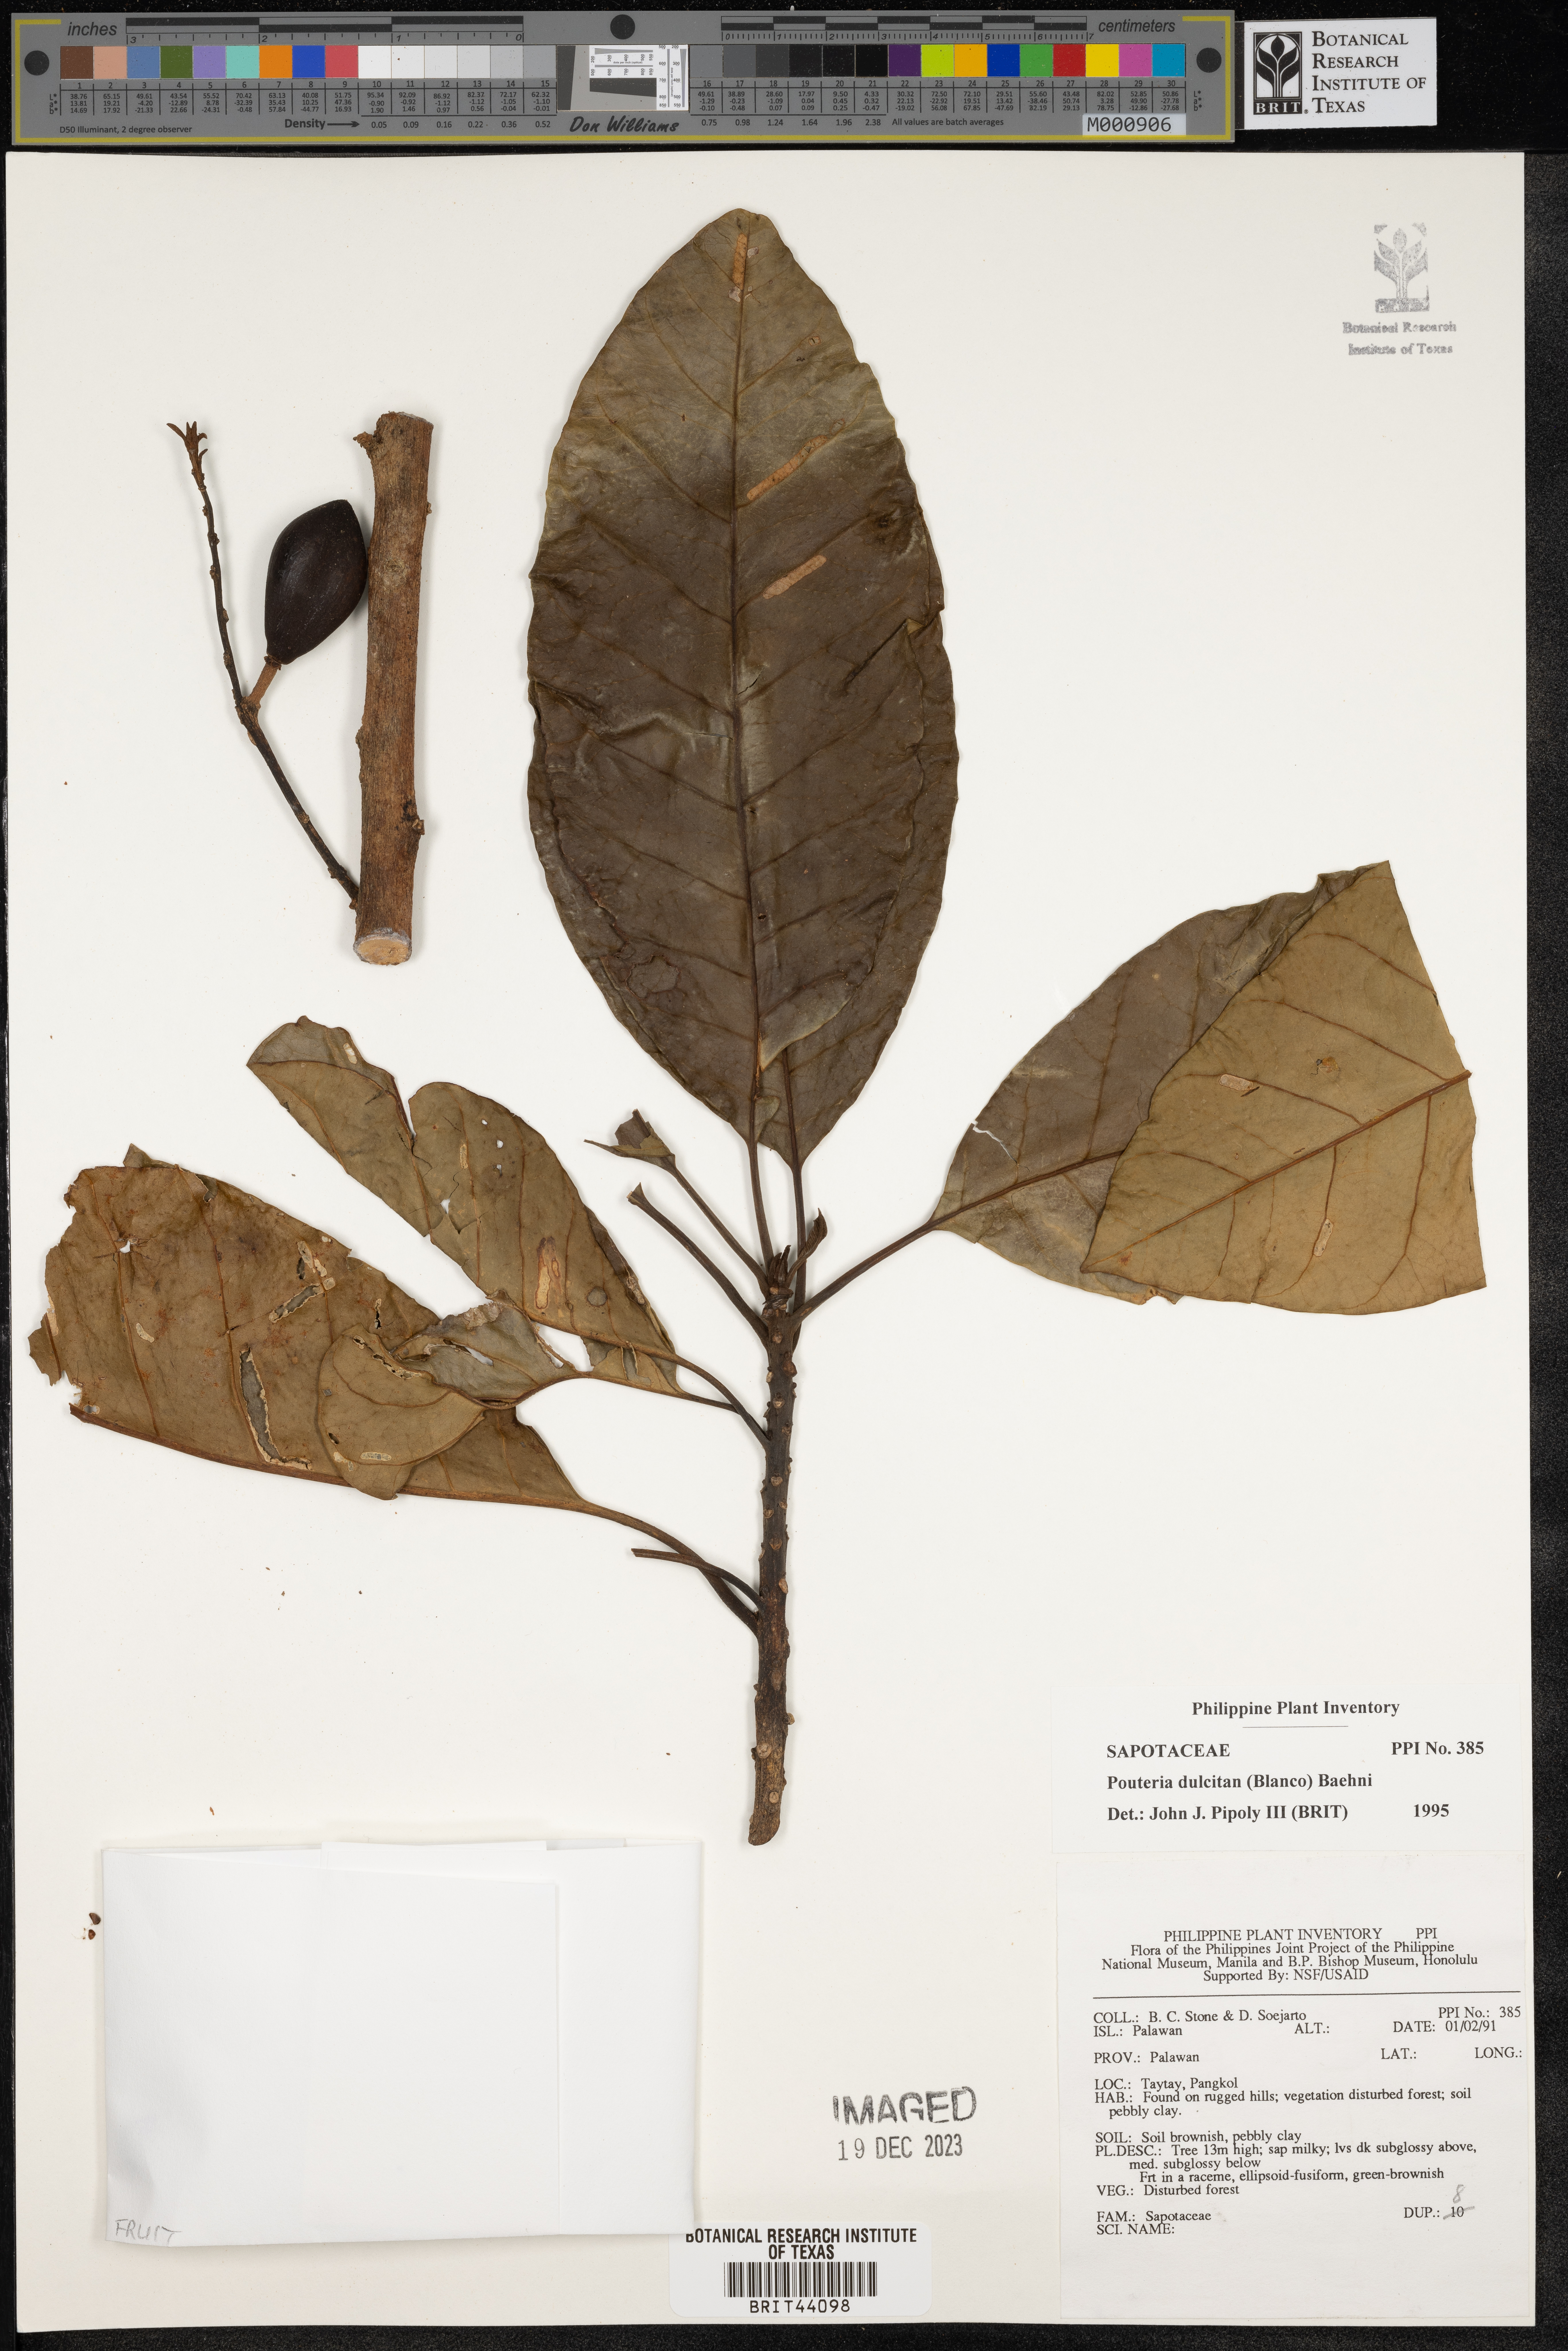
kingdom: Plantae
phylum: Tracheophyta
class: Magnoliopsida
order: Ericales
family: Sapotaceae
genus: Planchonella
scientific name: Planchonella duclitan
